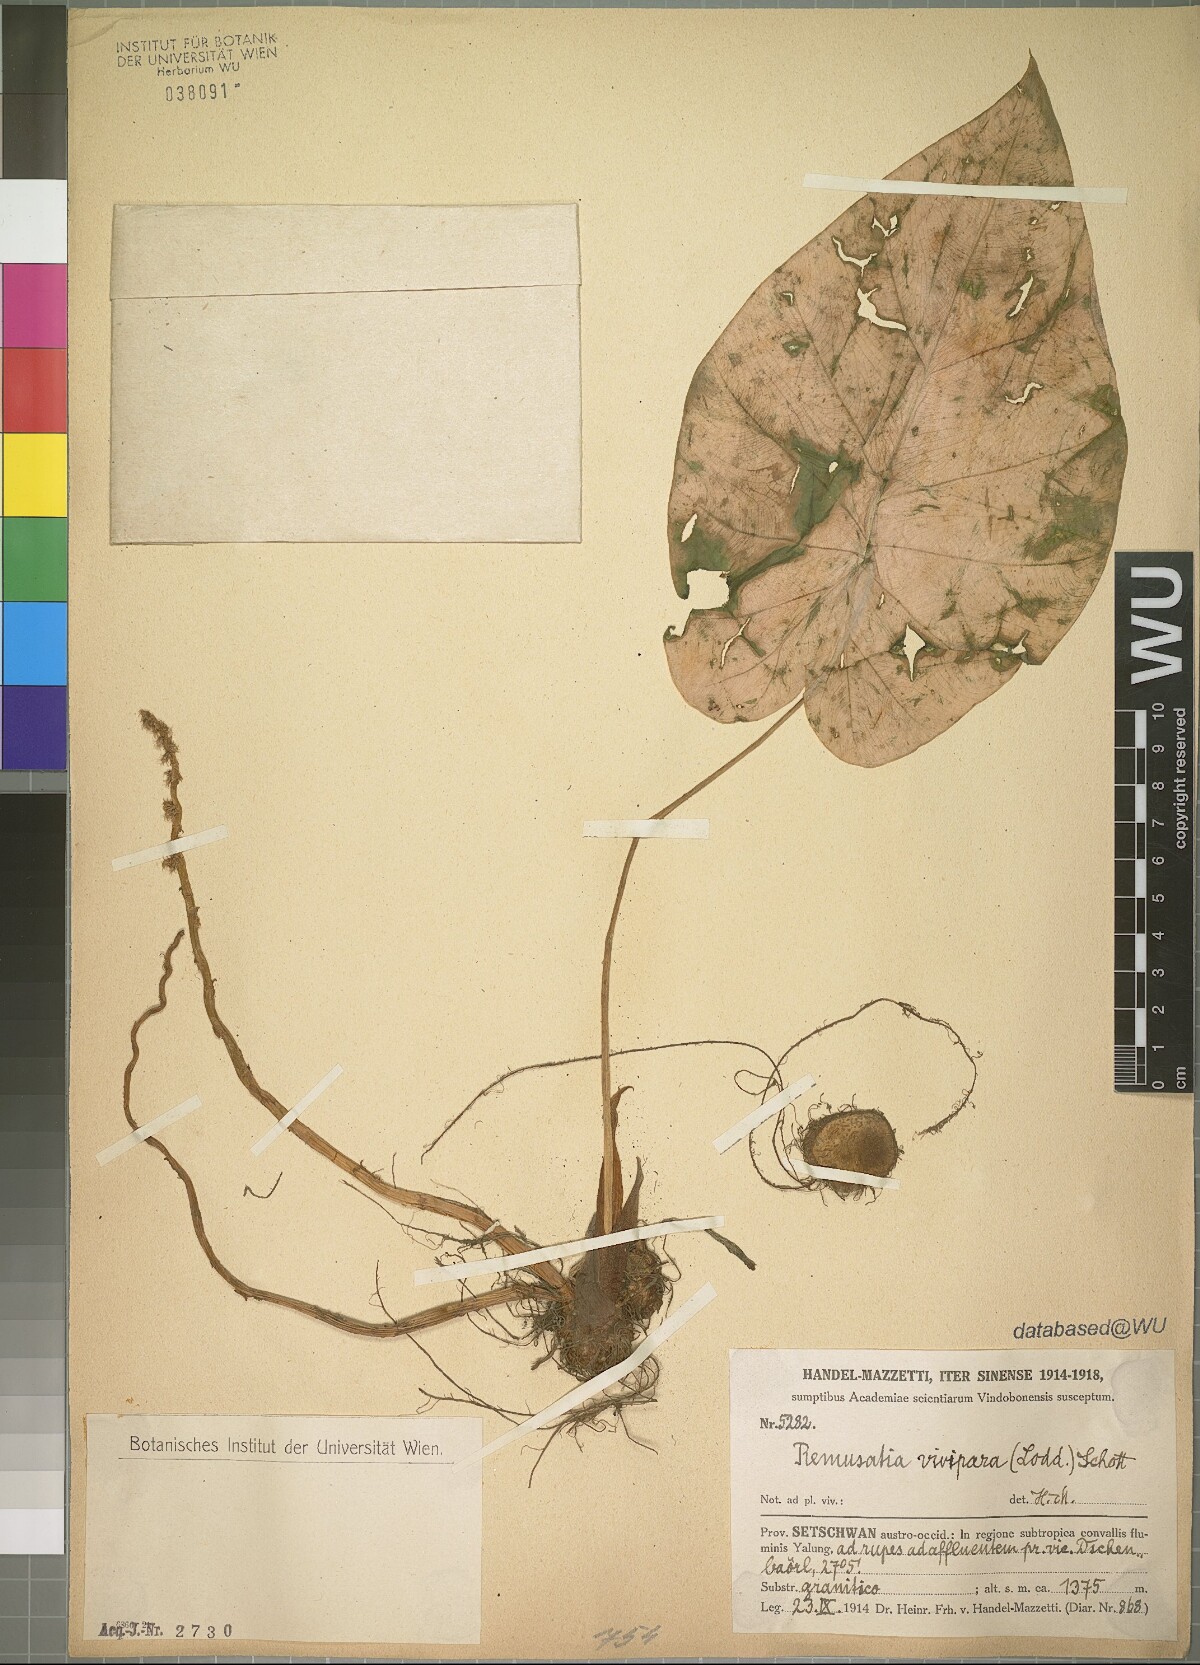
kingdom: Plantae
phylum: Tracheophyta
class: Liliopsida
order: Alismatales
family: Araceae
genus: Remusatia
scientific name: Remusatia vivipara
